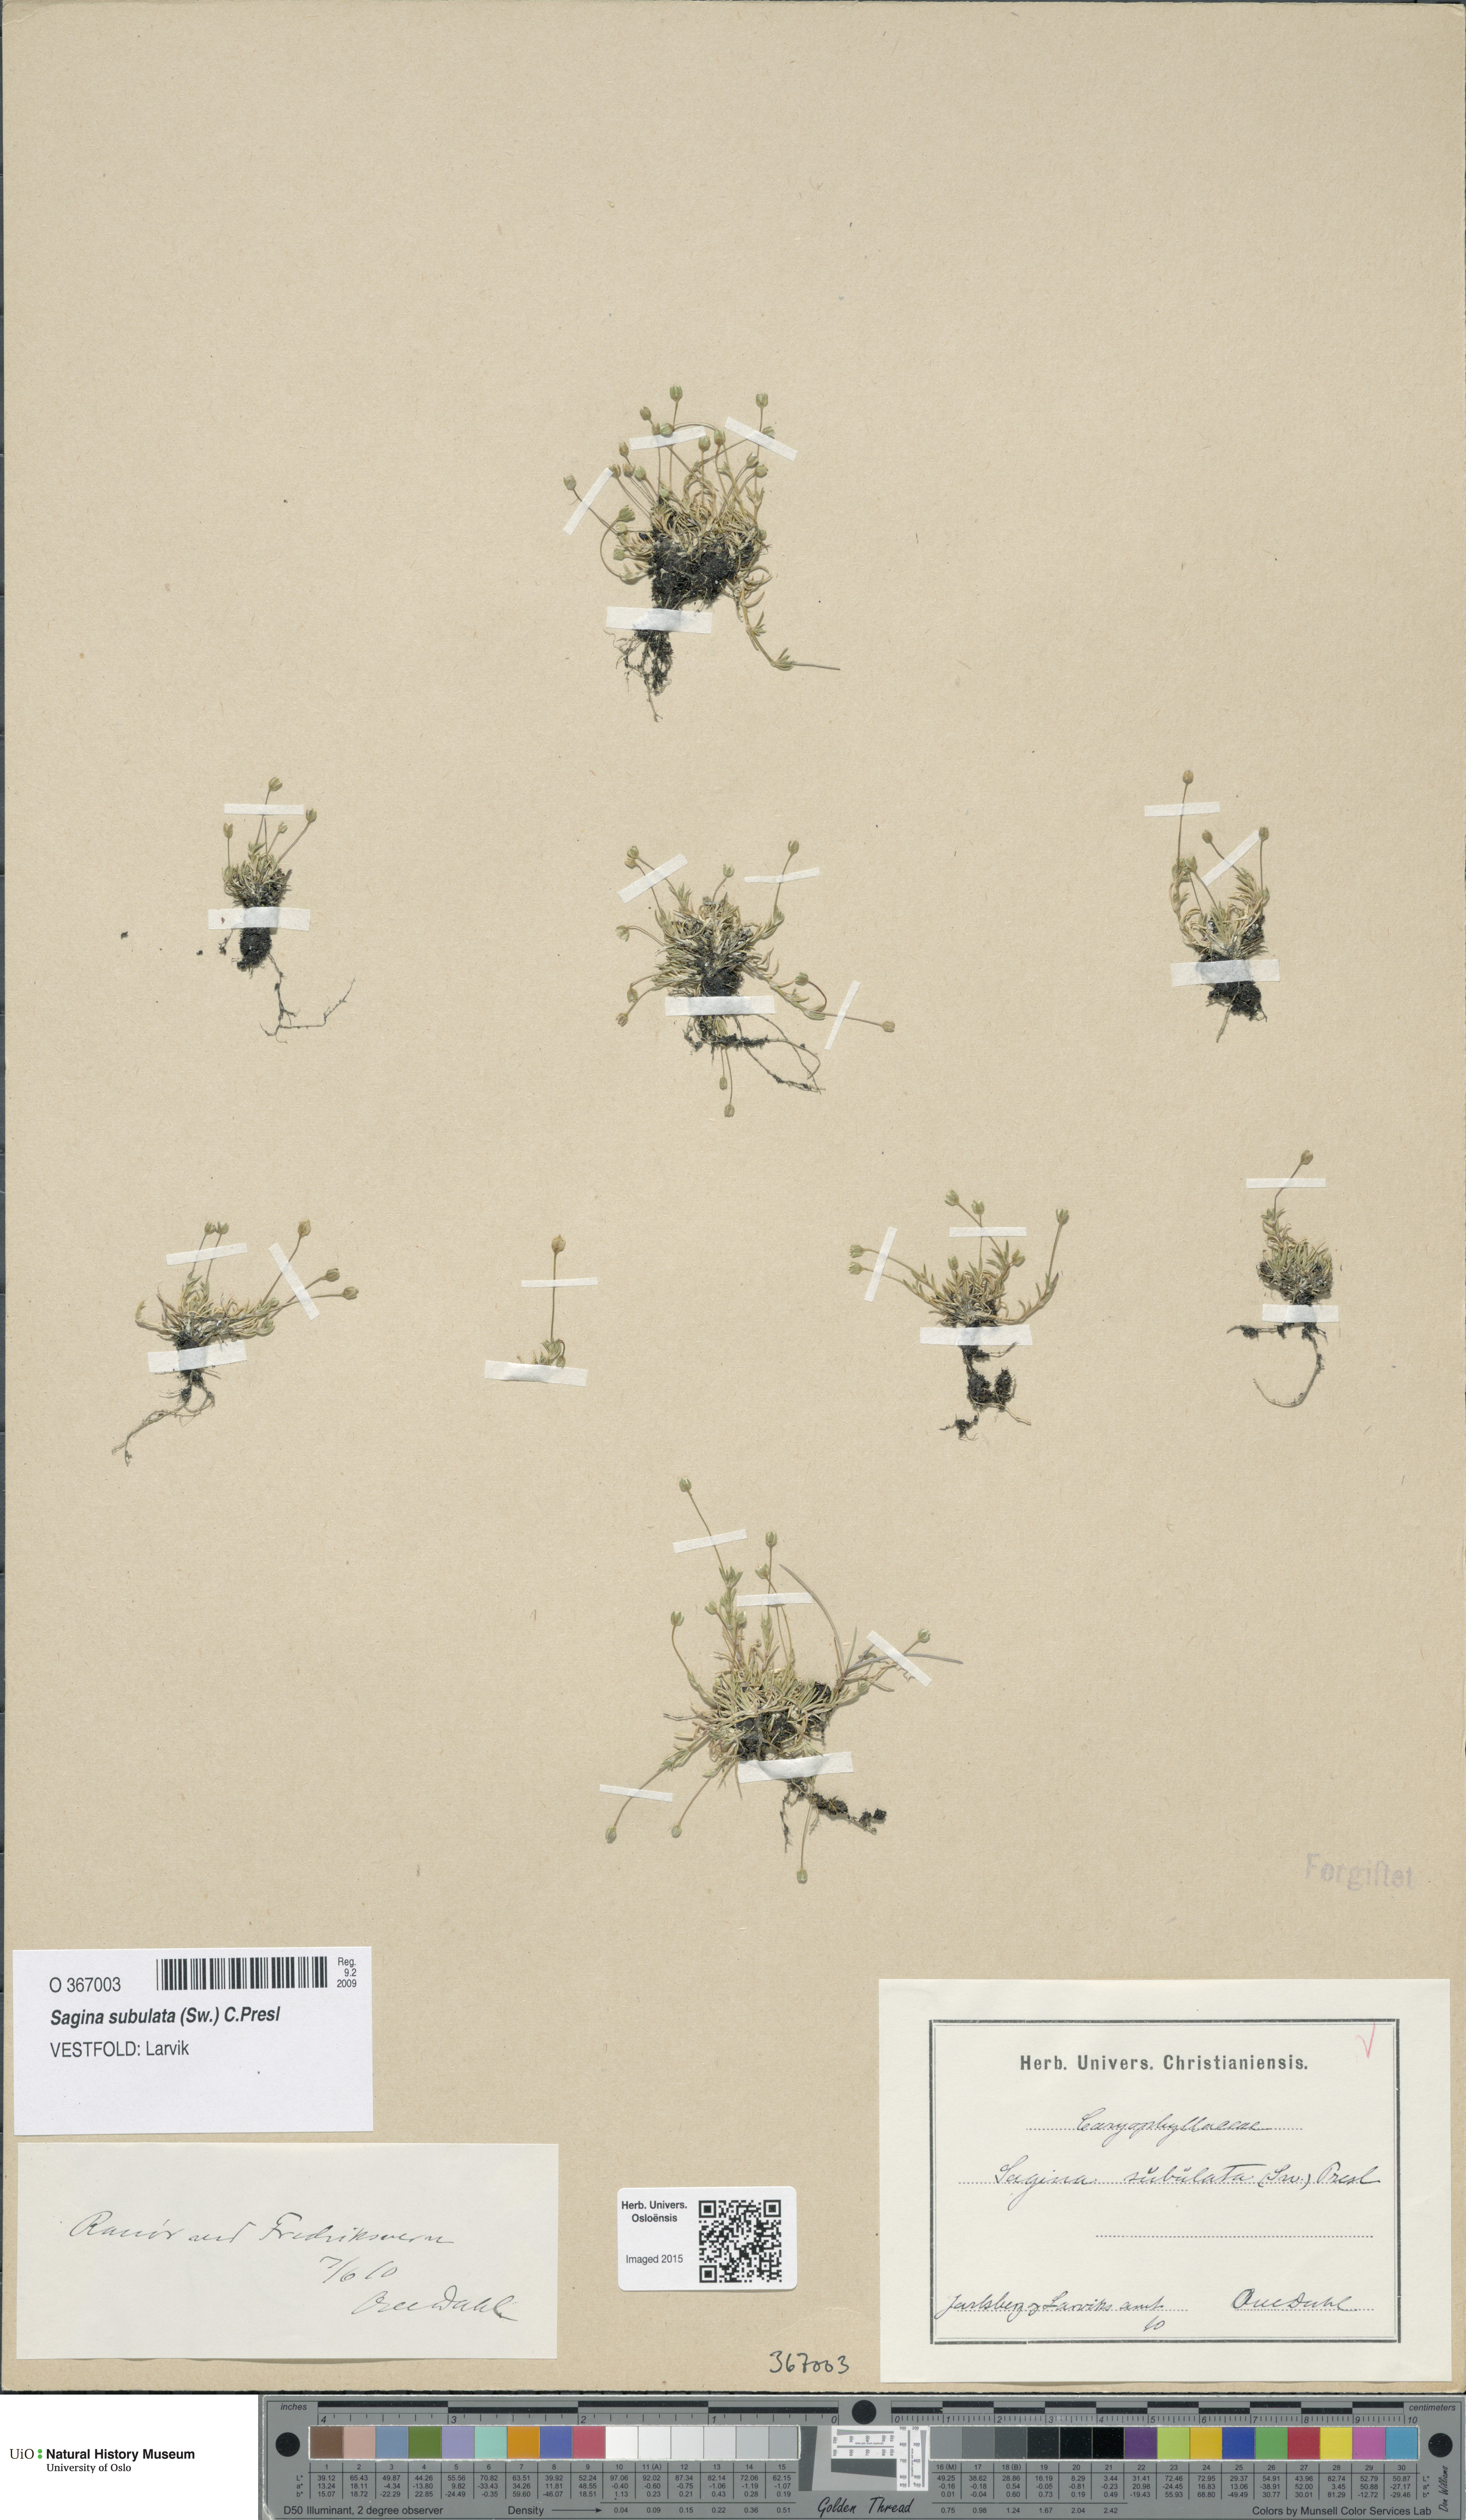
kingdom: Plantae
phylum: Tracheophyta
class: Magnoliopsida
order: Caryophyllales
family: Caryophyllaceae
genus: Sagina
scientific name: Sagina alexandrae
